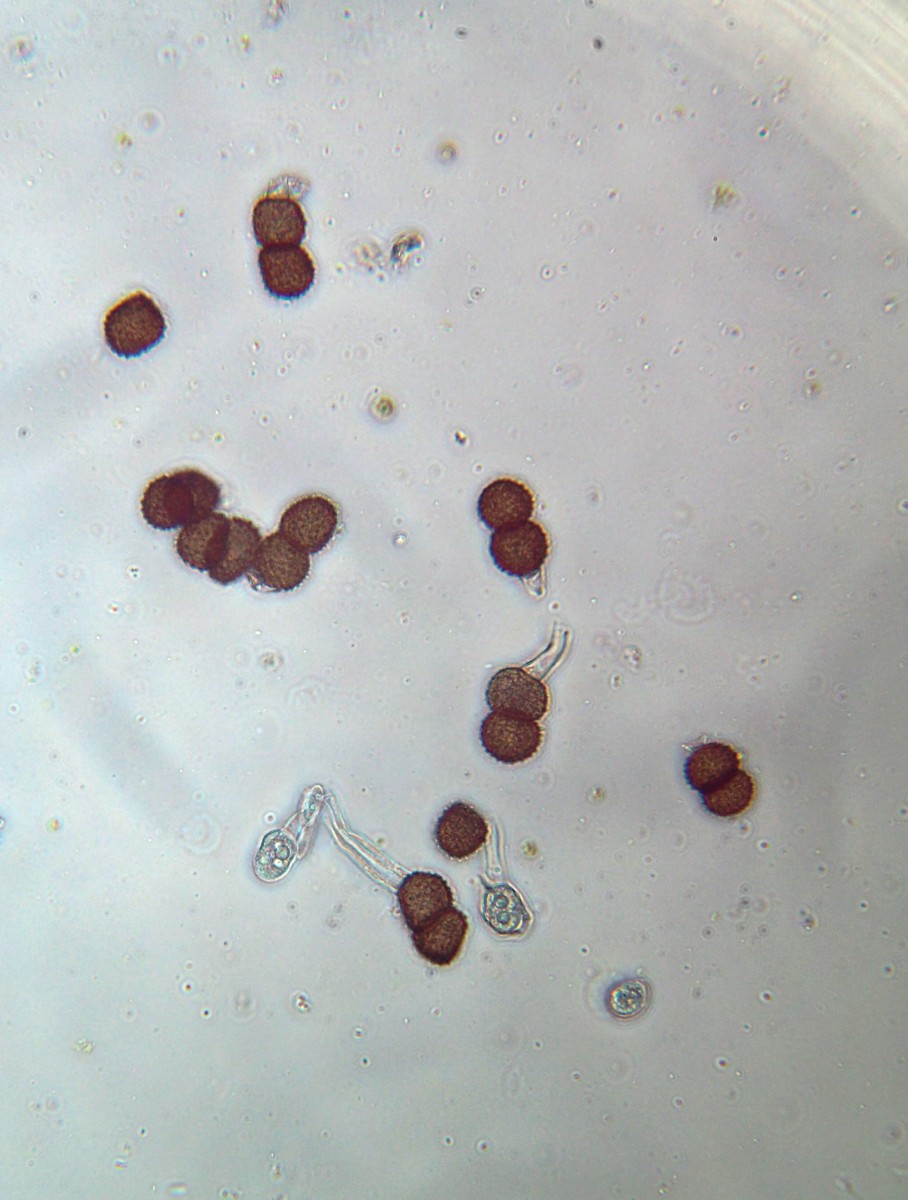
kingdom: Fungi
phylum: Basidiomycota
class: Pucciniomycetes
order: Pucciniales
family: Tranzscheliaceae
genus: Tranzschelia
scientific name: Tranzschelia anemones
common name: anemone-knæksporerust
